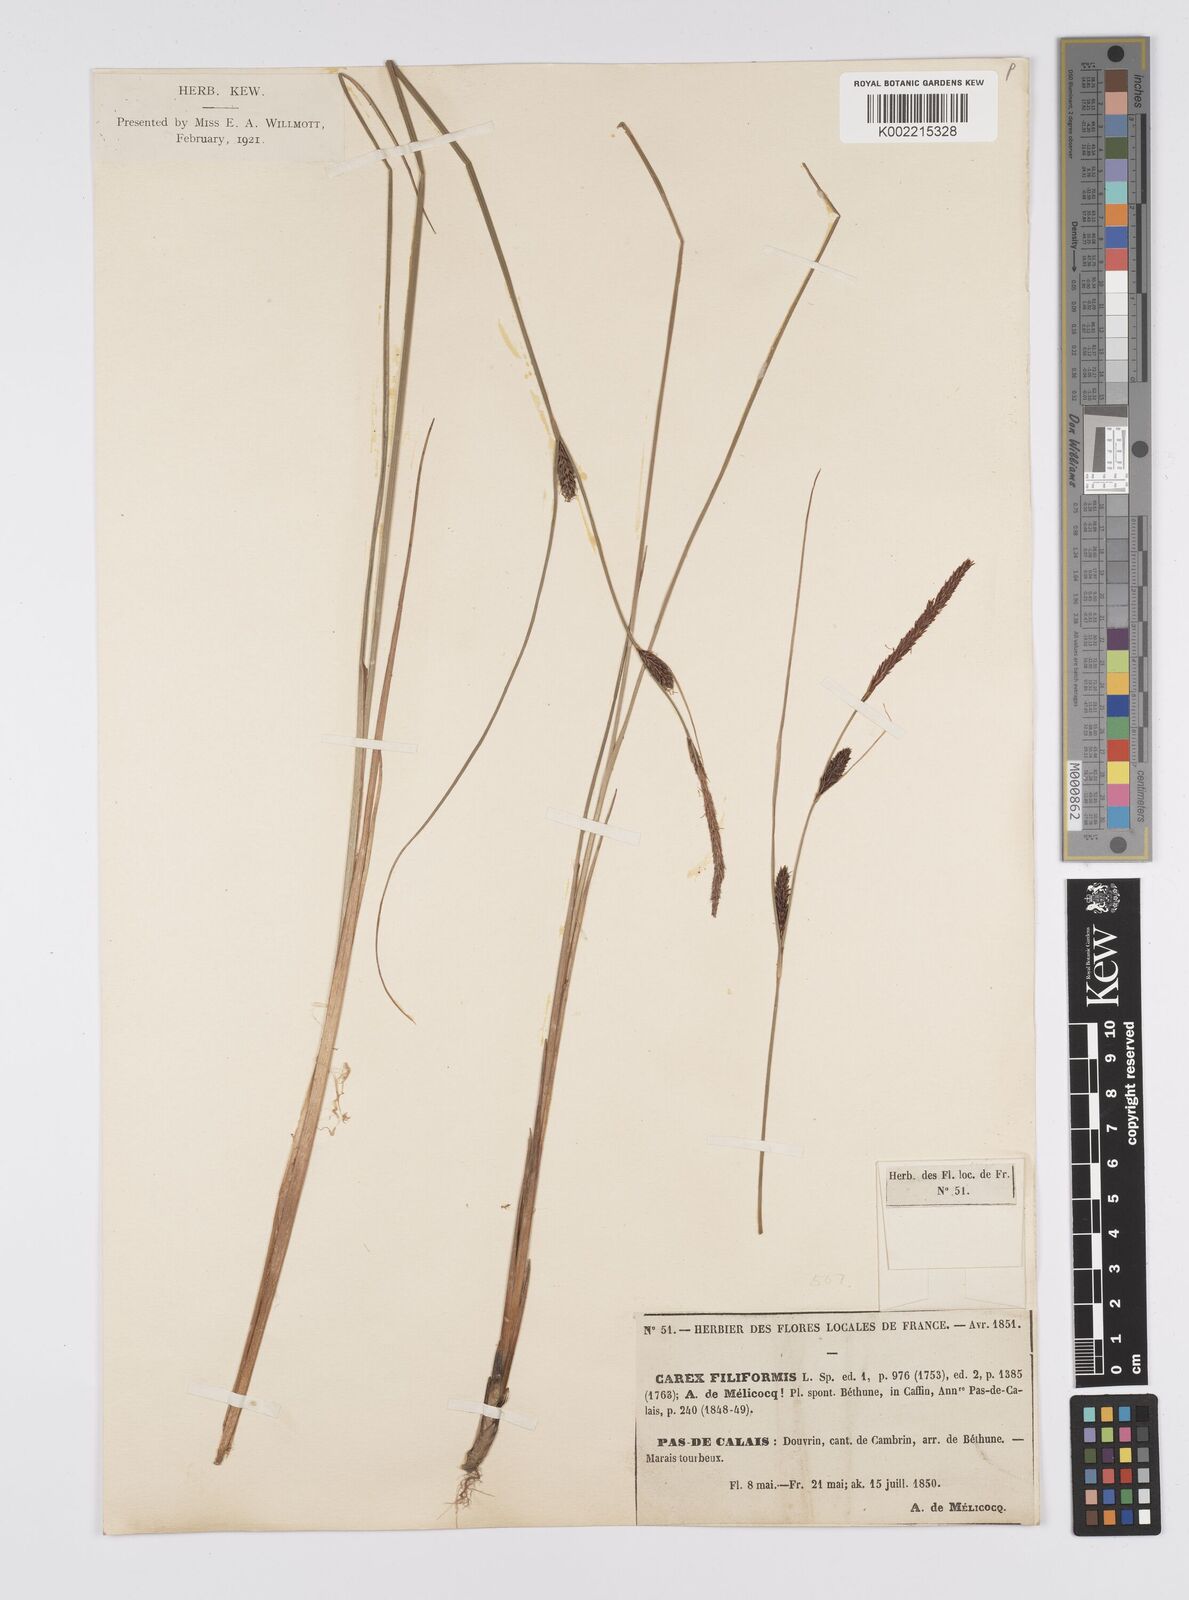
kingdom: Plantae
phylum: Tracheophyta
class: Liliopsida
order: Poales
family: Cyperaceae
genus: Carex
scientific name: Carex lasiocarpa
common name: Slender sedge
